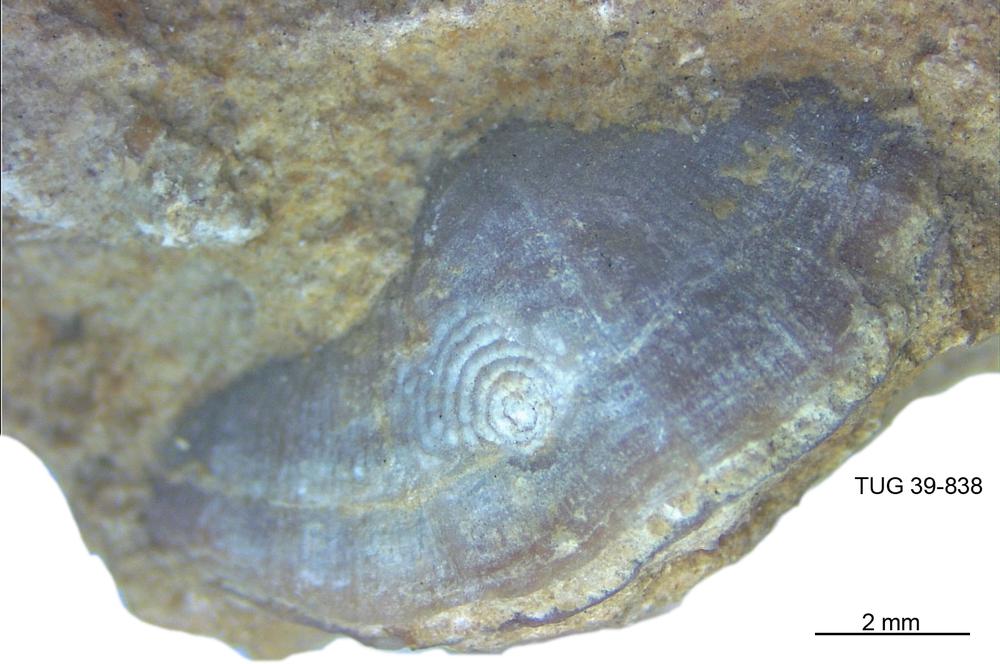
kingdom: Animalia
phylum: Brachiopoda
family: Oldhaminidae
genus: Eoplectodonta
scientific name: Eoplectodonta
